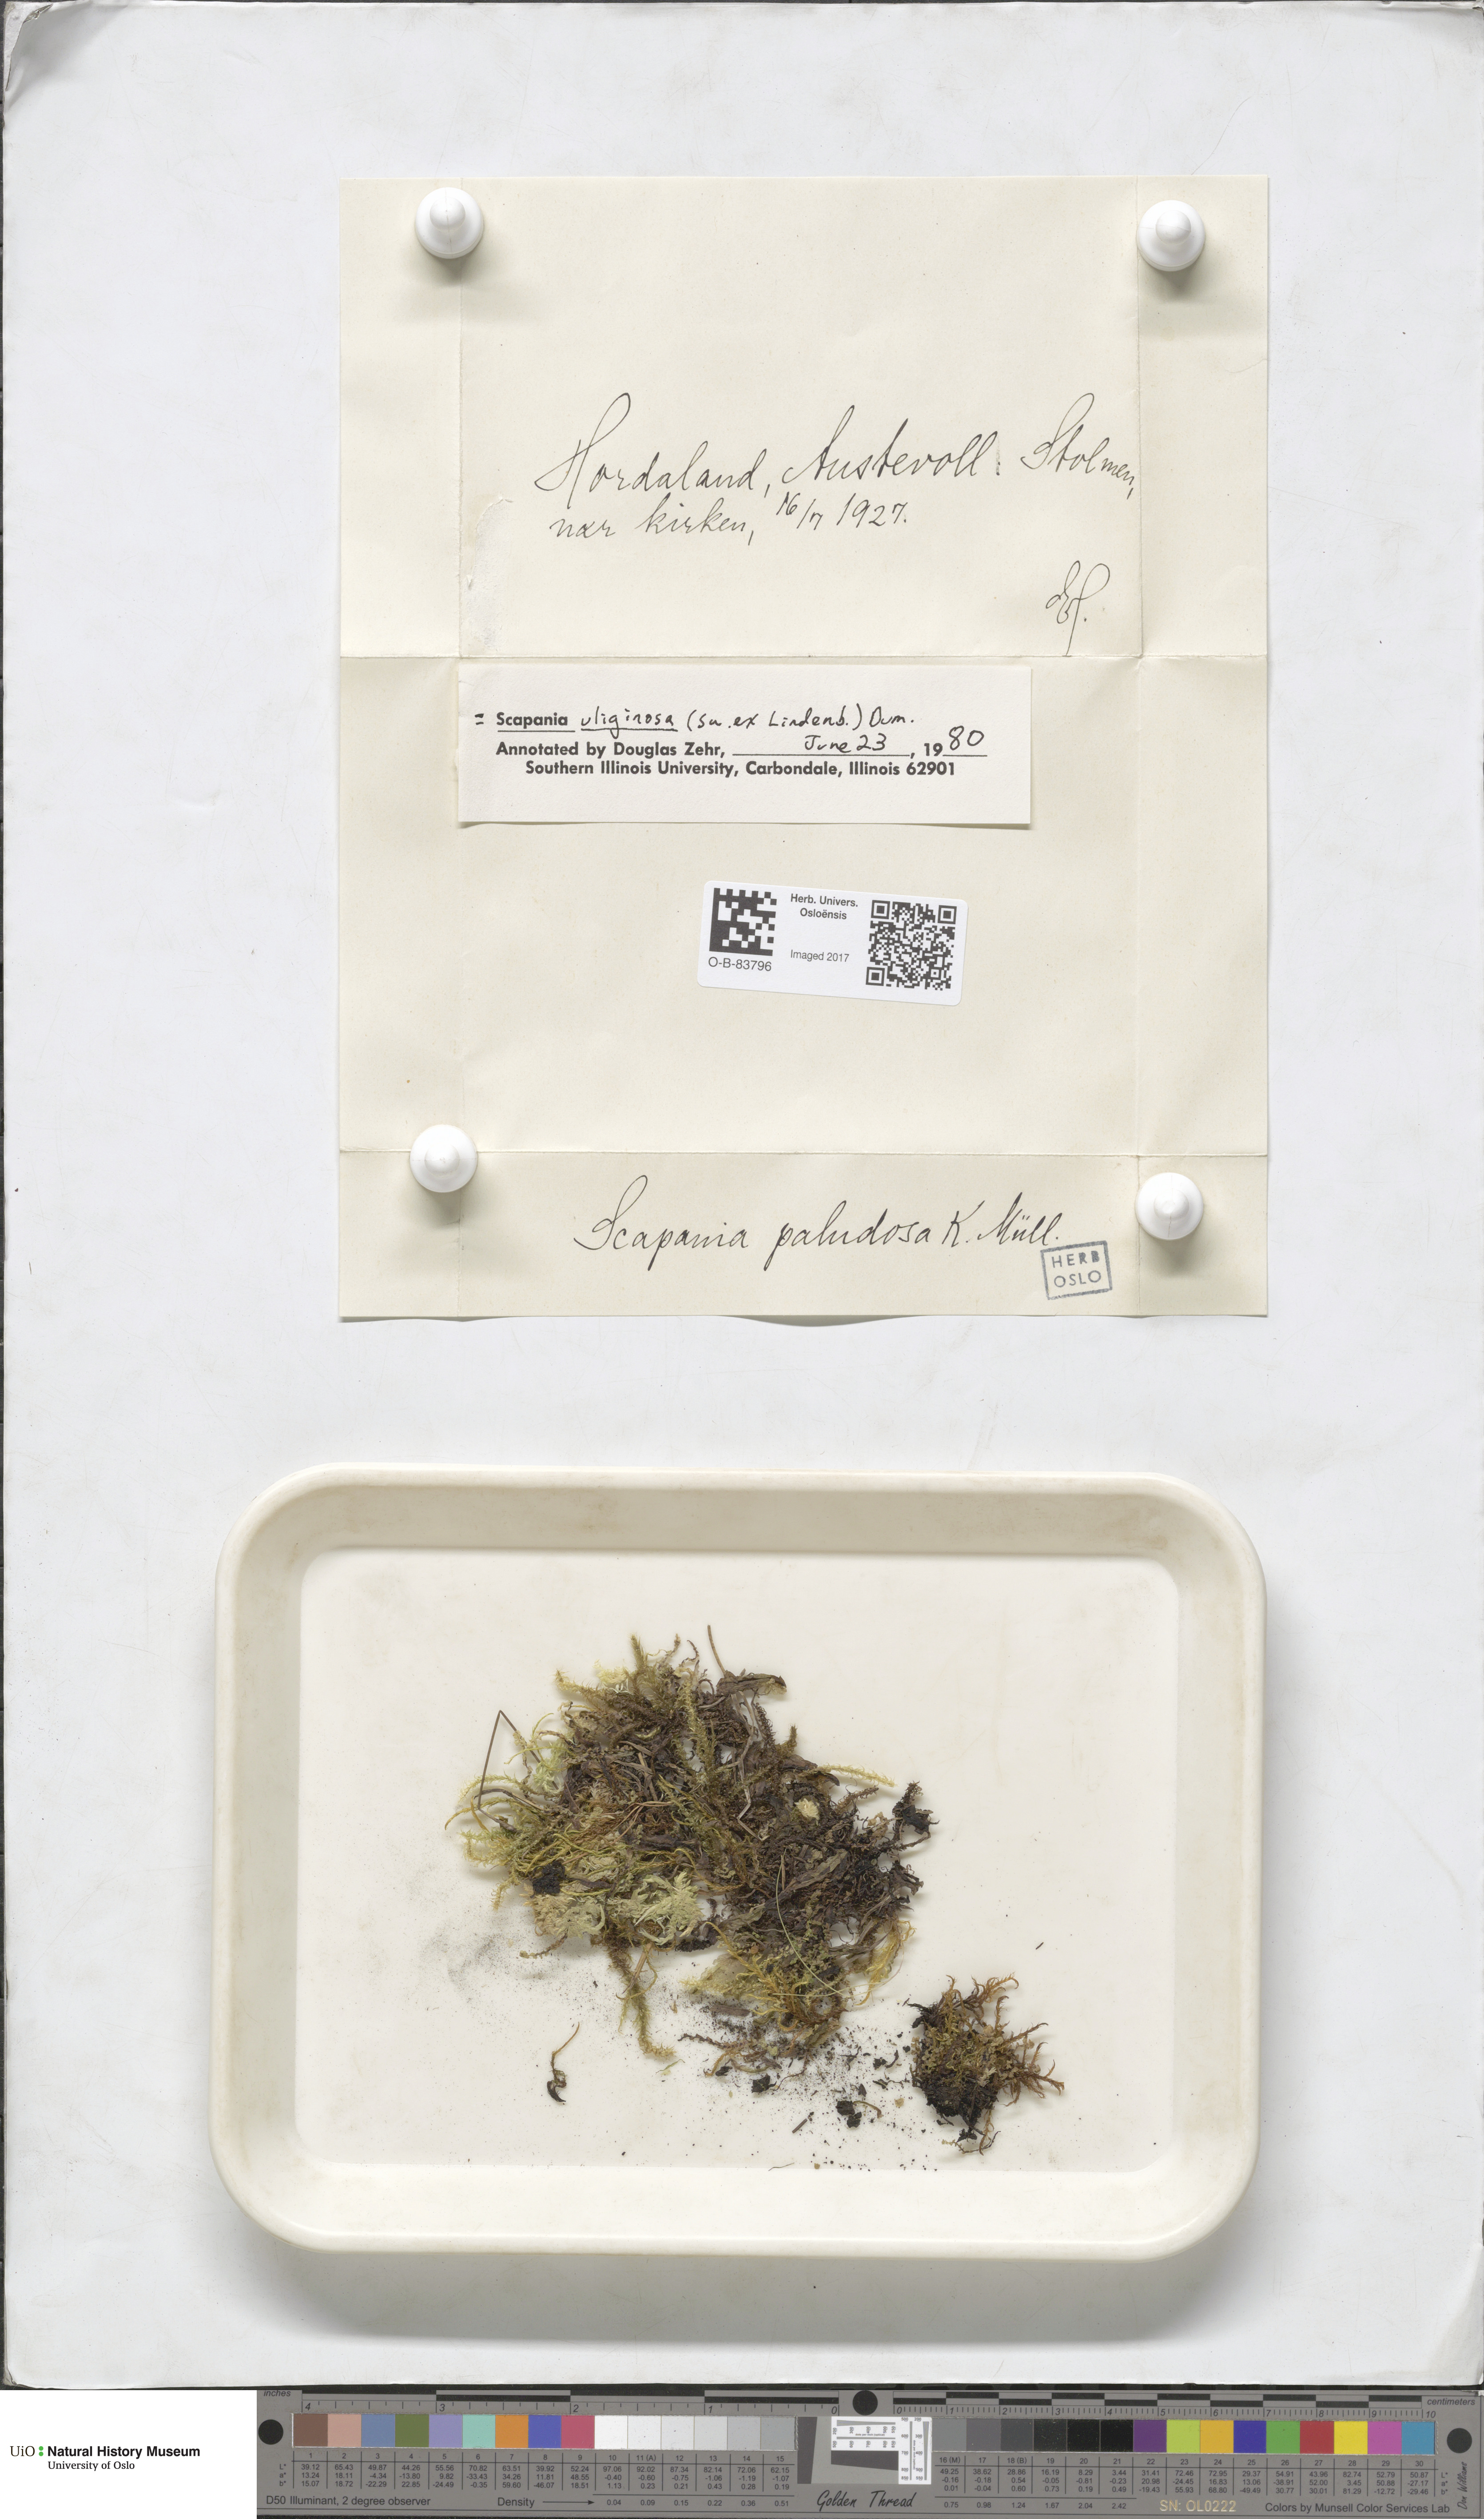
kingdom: Plantae
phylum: Marchantiophyta
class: Jungermanniopsida
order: Jungermanniales
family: Scapaniaceae
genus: Scapania
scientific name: Scapania paludosa
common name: Floppy earwort
